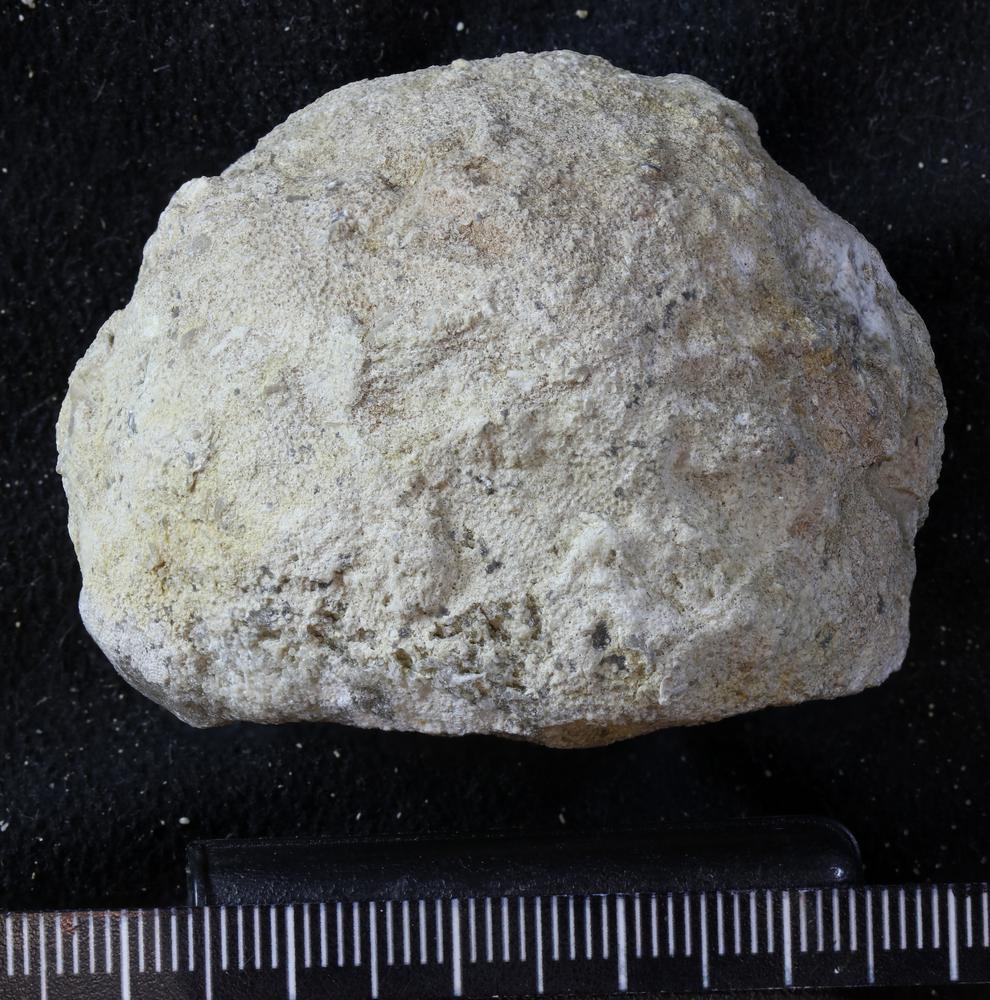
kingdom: Animalia
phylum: Bryozoa
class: Stenolaemata
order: Trepostomatida
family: Diplotrypidae
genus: Diplotrypa
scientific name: Diplotrypa petropolitana
